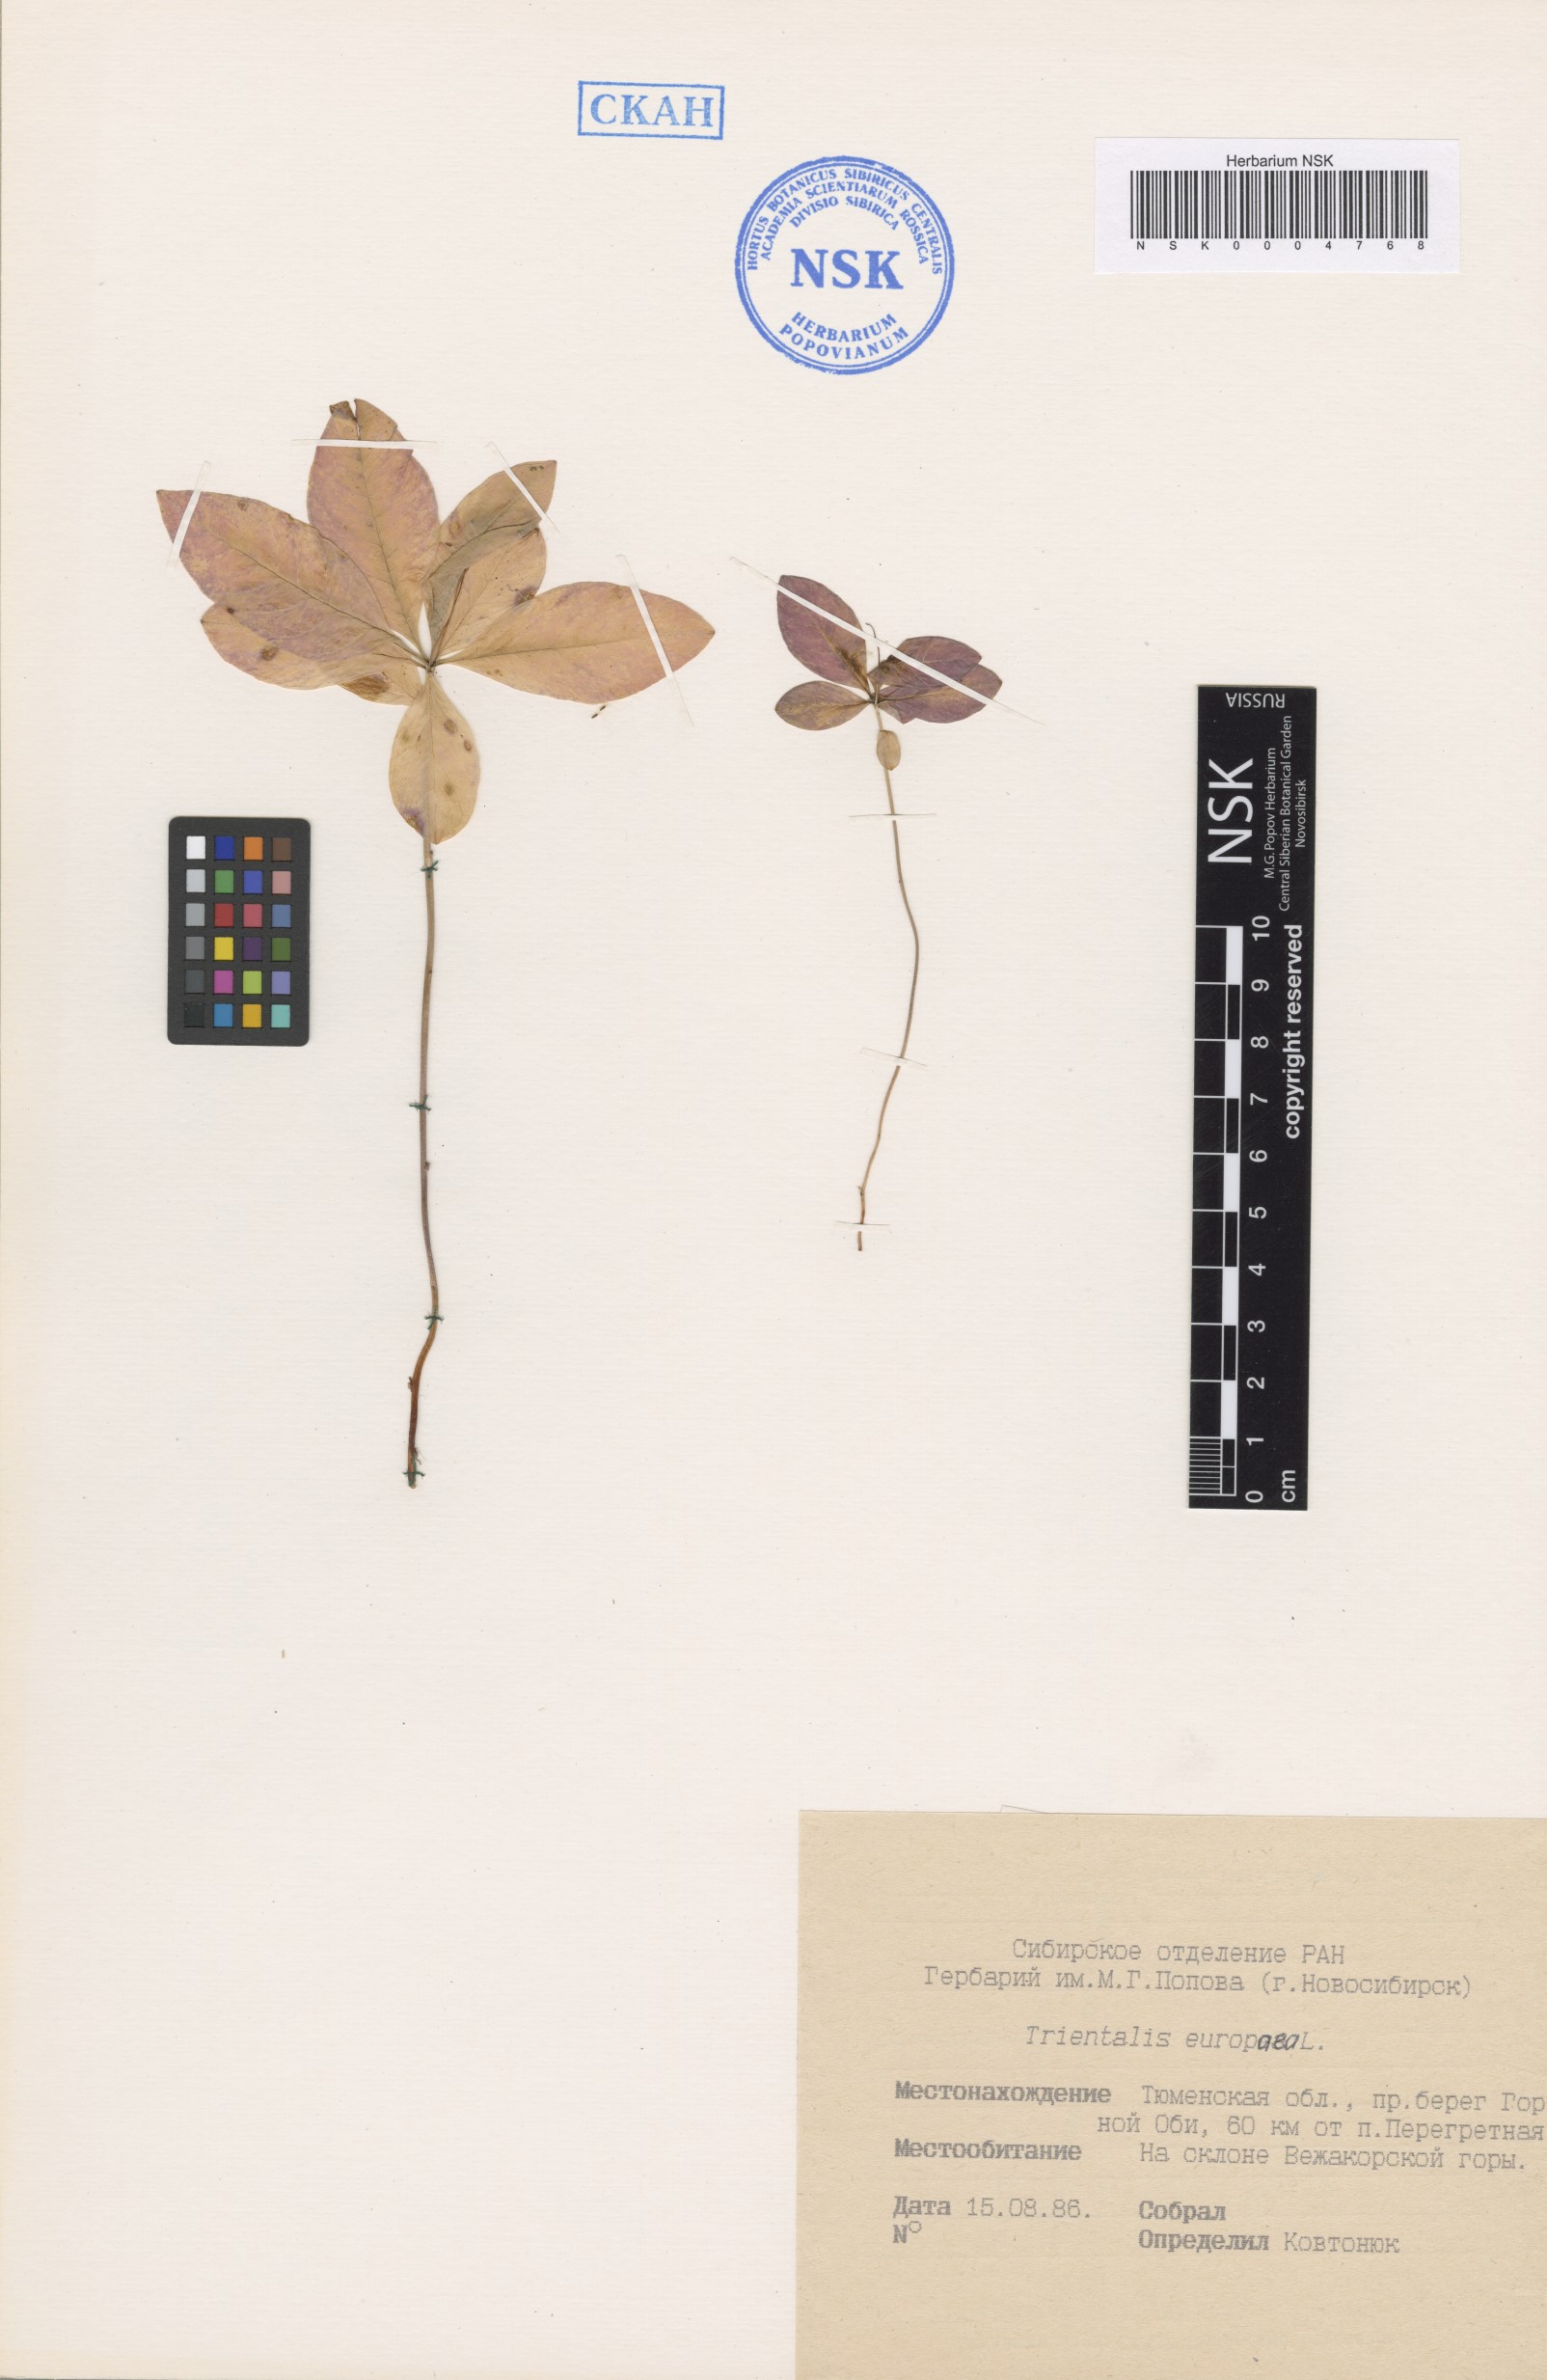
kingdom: Plantae
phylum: Tracheophyta
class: Magnoliopsida
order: Ericales
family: Primulaceae
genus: Lysimachia
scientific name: Lysimachia europaea
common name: Arctic starflower
